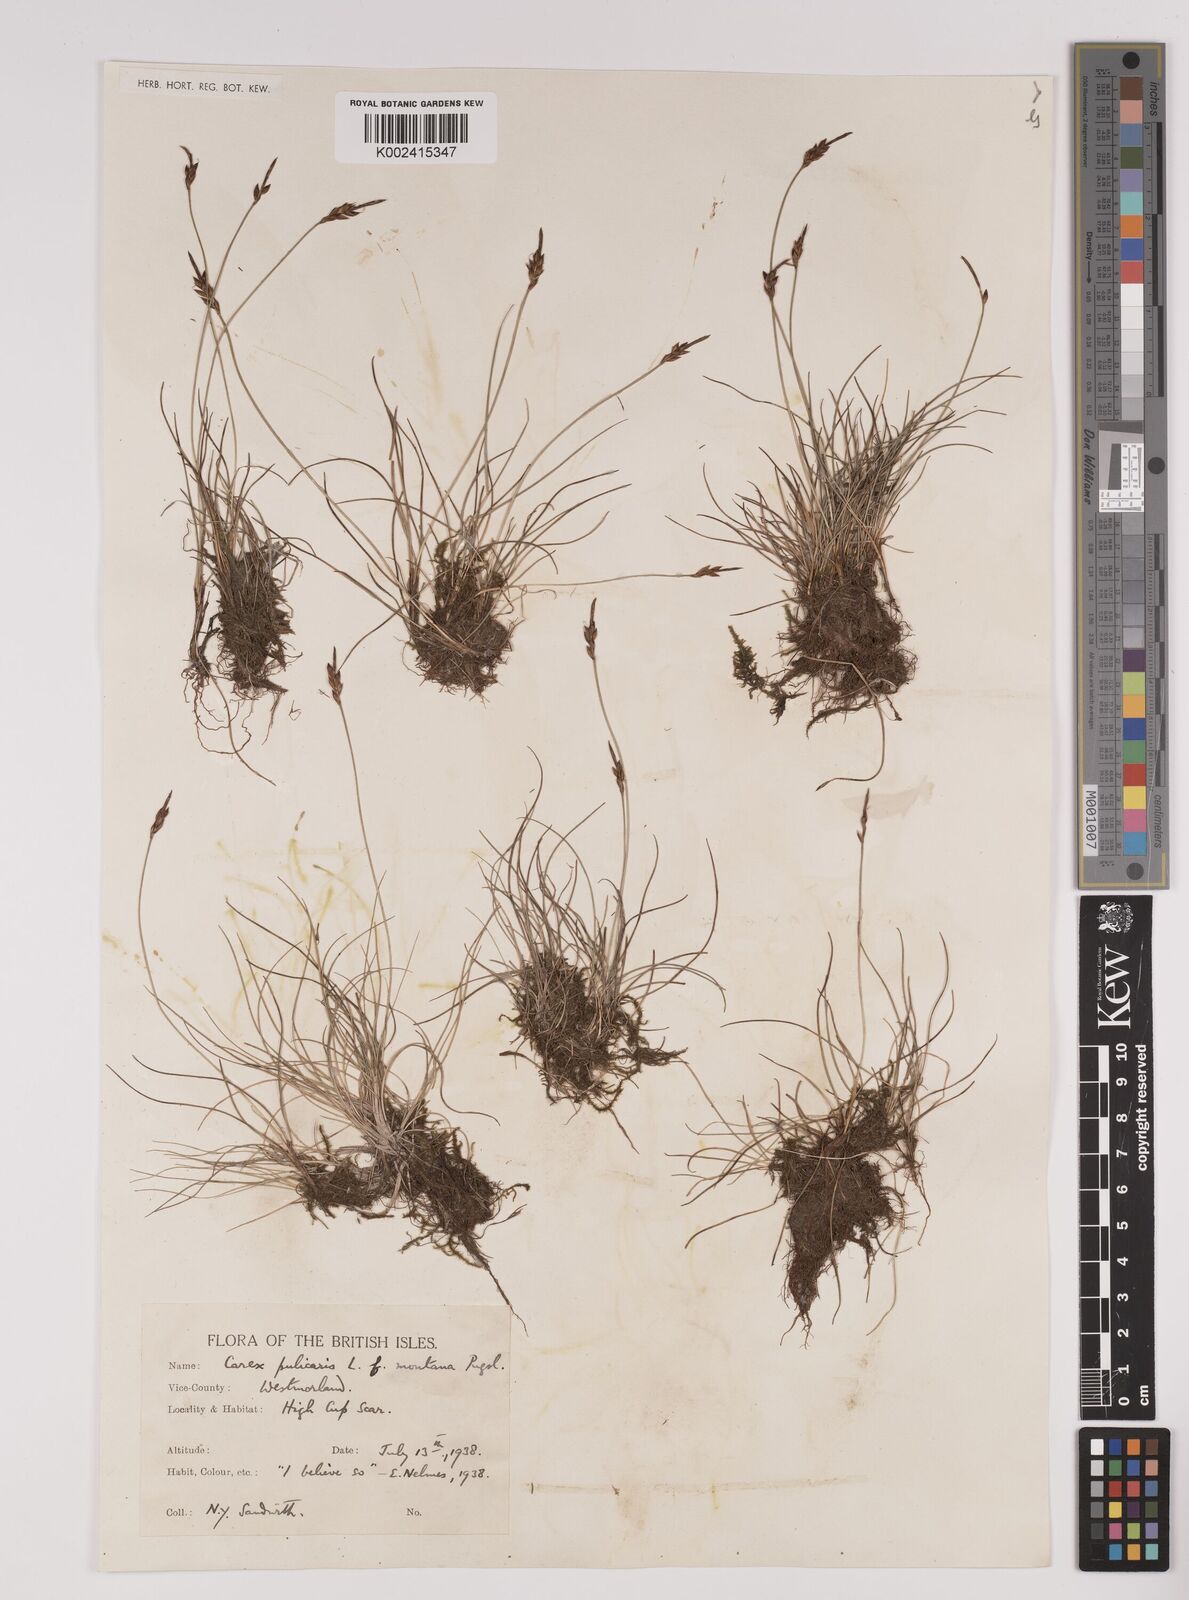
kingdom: Plantae
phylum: Tracheophyta
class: Liliopsida
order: Poales
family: Cyperaceae
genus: Carex
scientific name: Carex pulicaris
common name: Flea sedge
